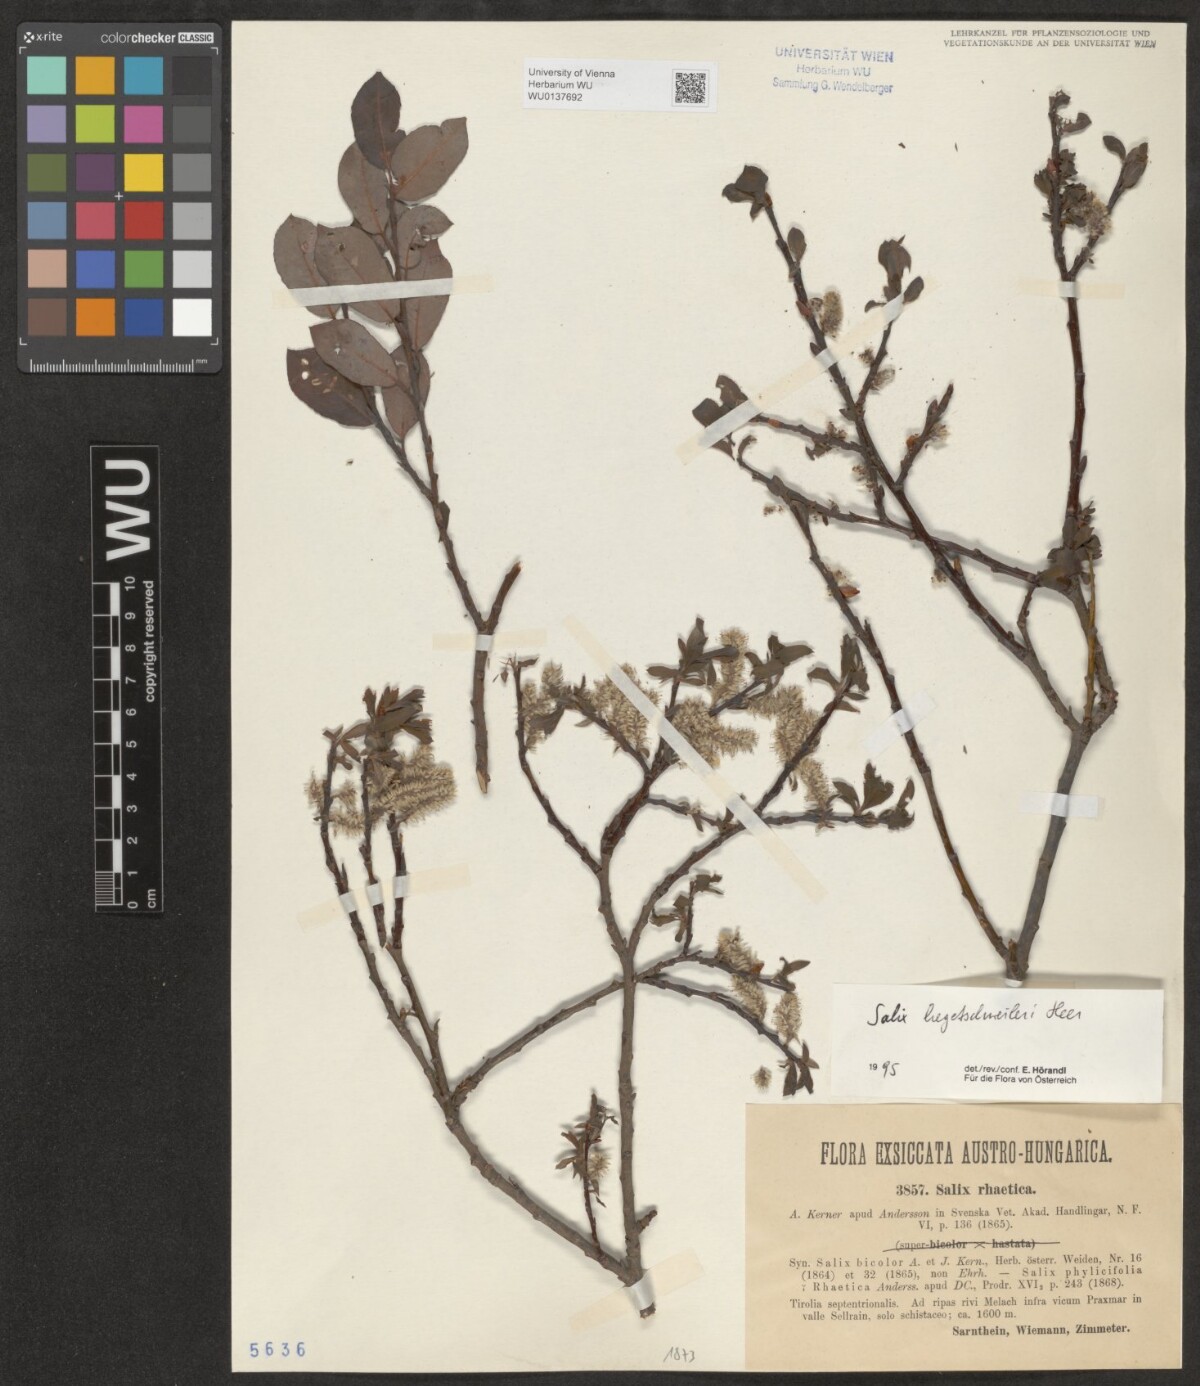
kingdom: Plantae
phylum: Tracheophyta
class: Magnoliopsida
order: Malpighiales
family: Salicaceae
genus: Salix
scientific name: Salix hegetschweileri
